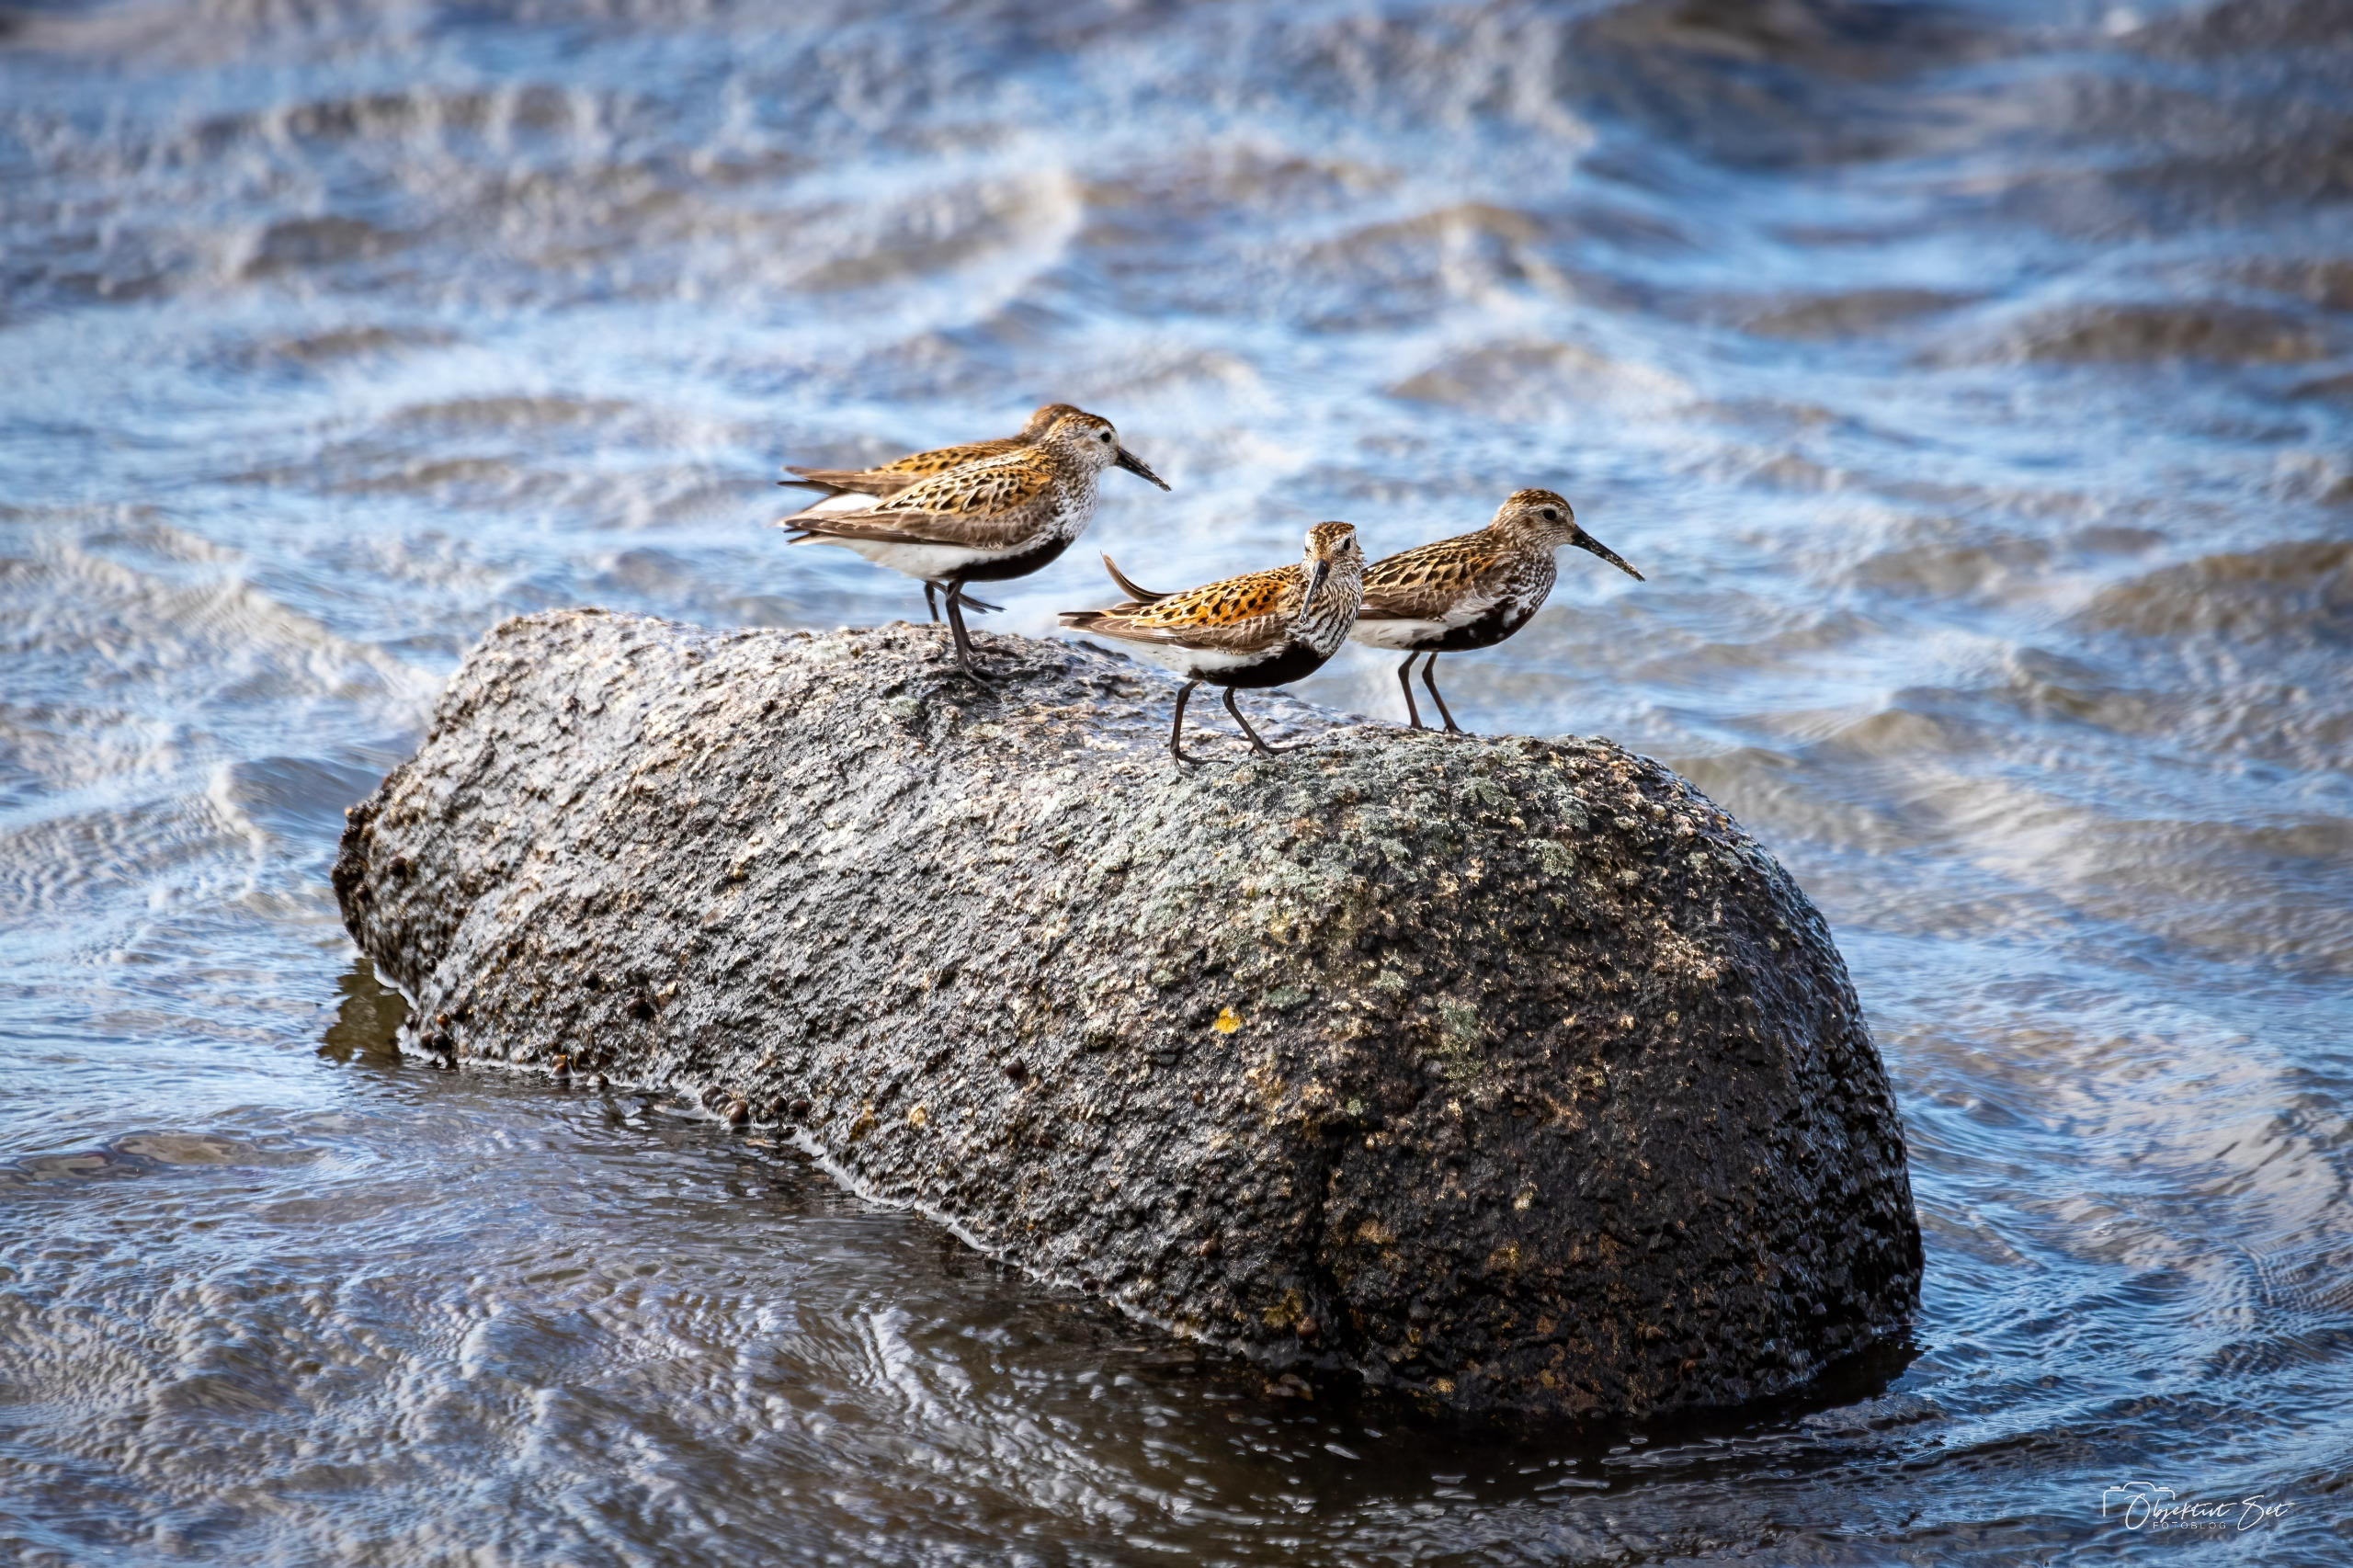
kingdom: Animalia
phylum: Chordata
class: Aves
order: Charadriiformes
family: Scolopacidae
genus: Calidris
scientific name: Calidris alpina
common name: Almindelig ryle
